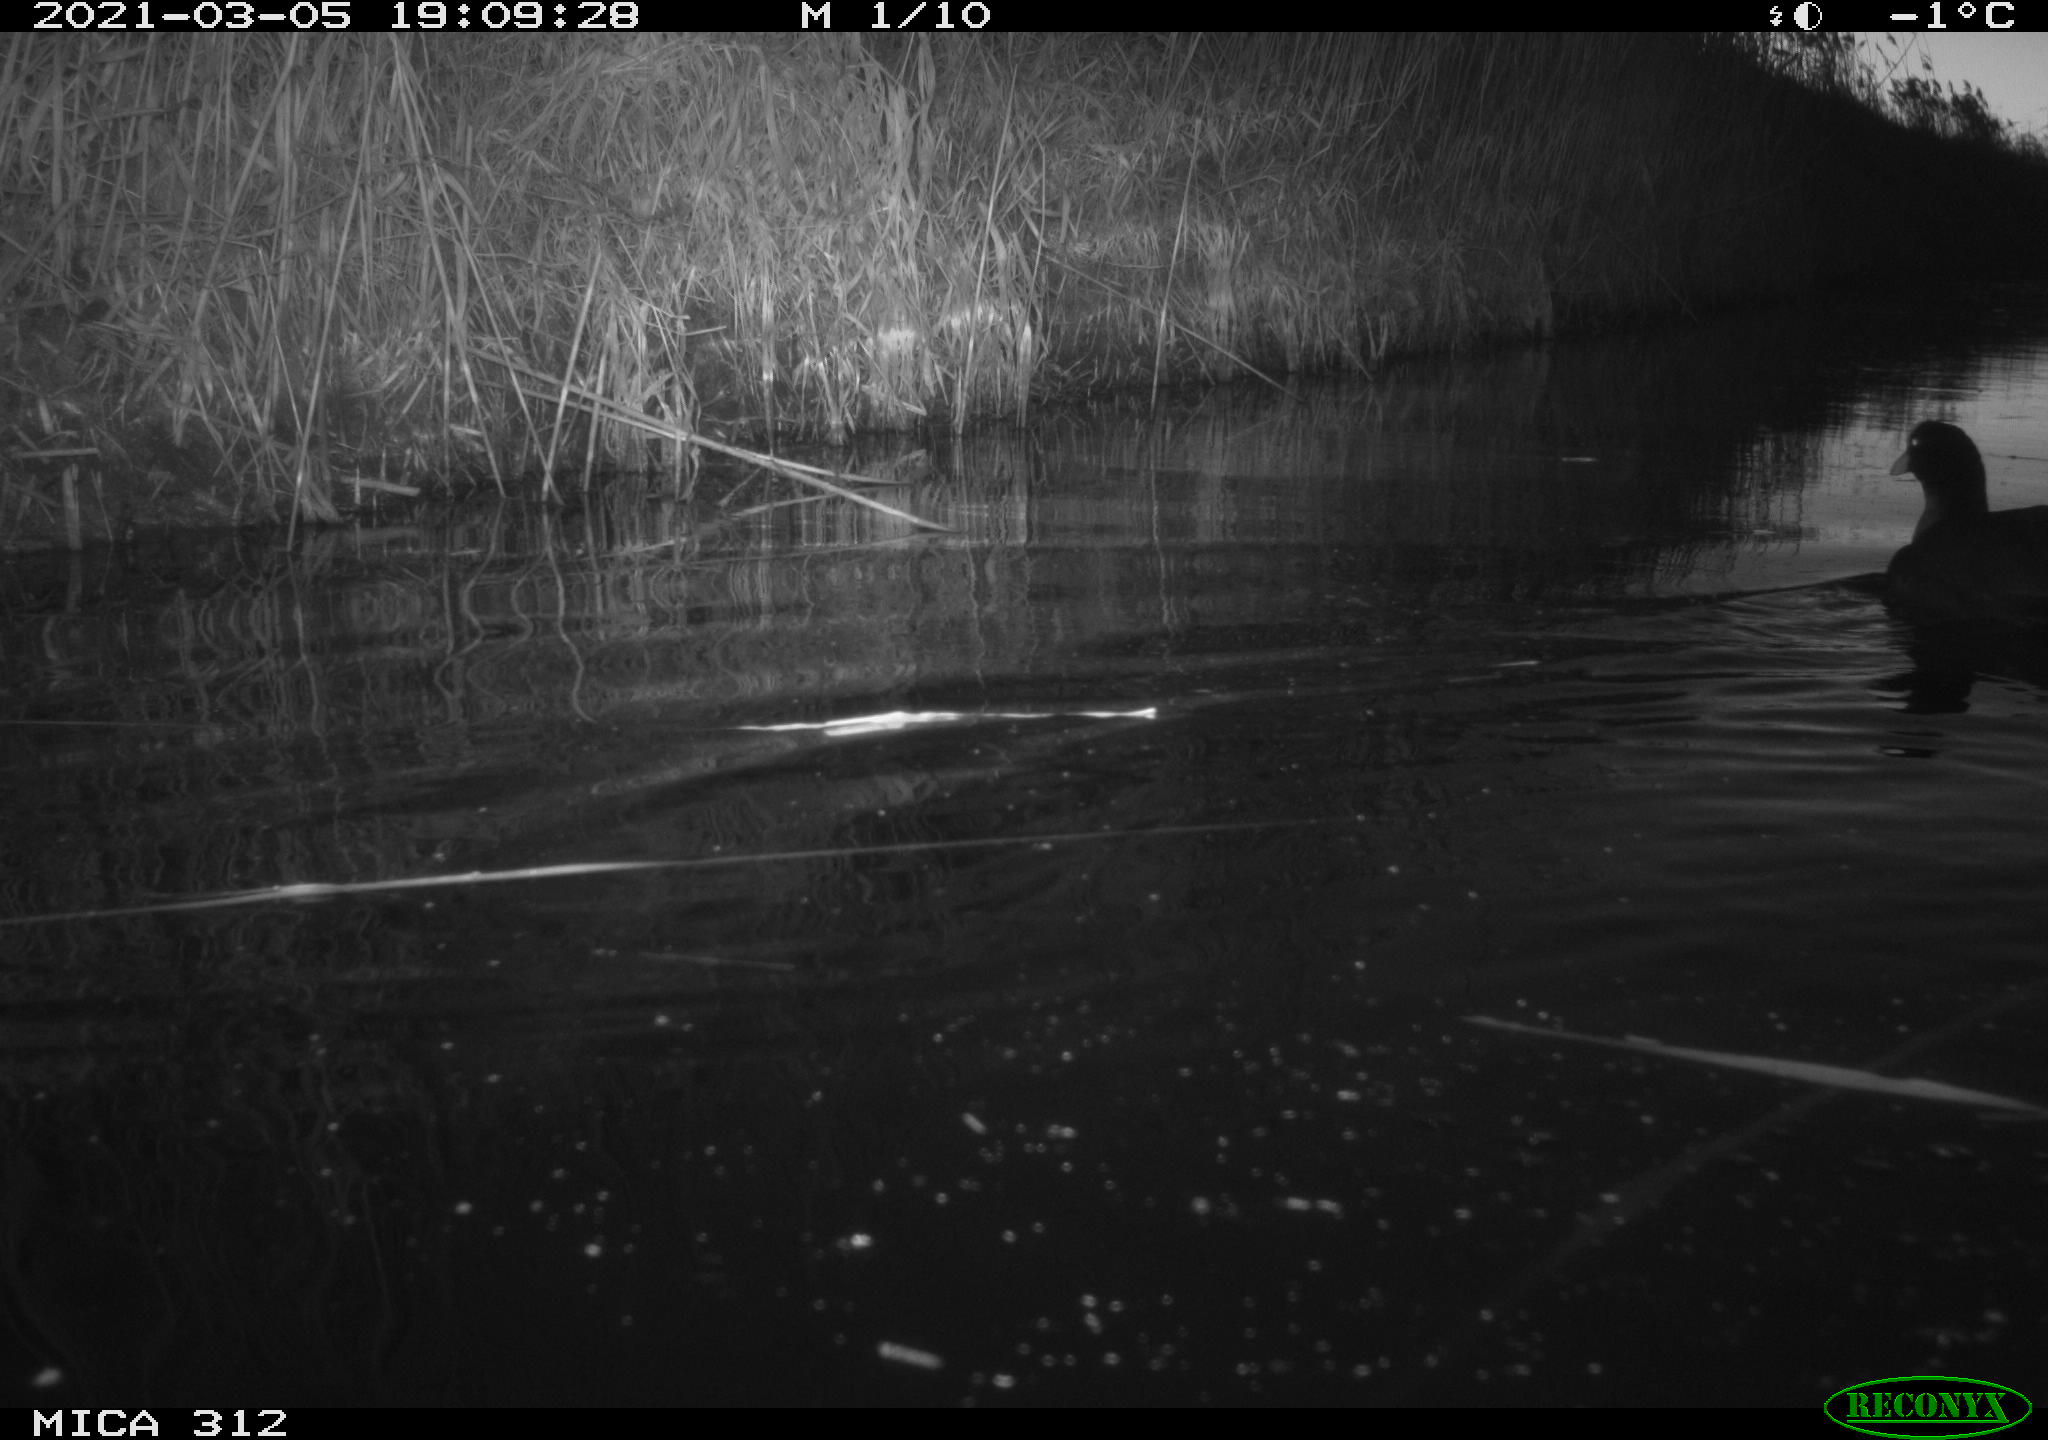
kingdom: Animalia
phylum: Chordata
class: Aves
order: Gruiformes
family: Rallidae
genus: Fulica
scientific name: Fulica atra
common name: Eurasian coot
